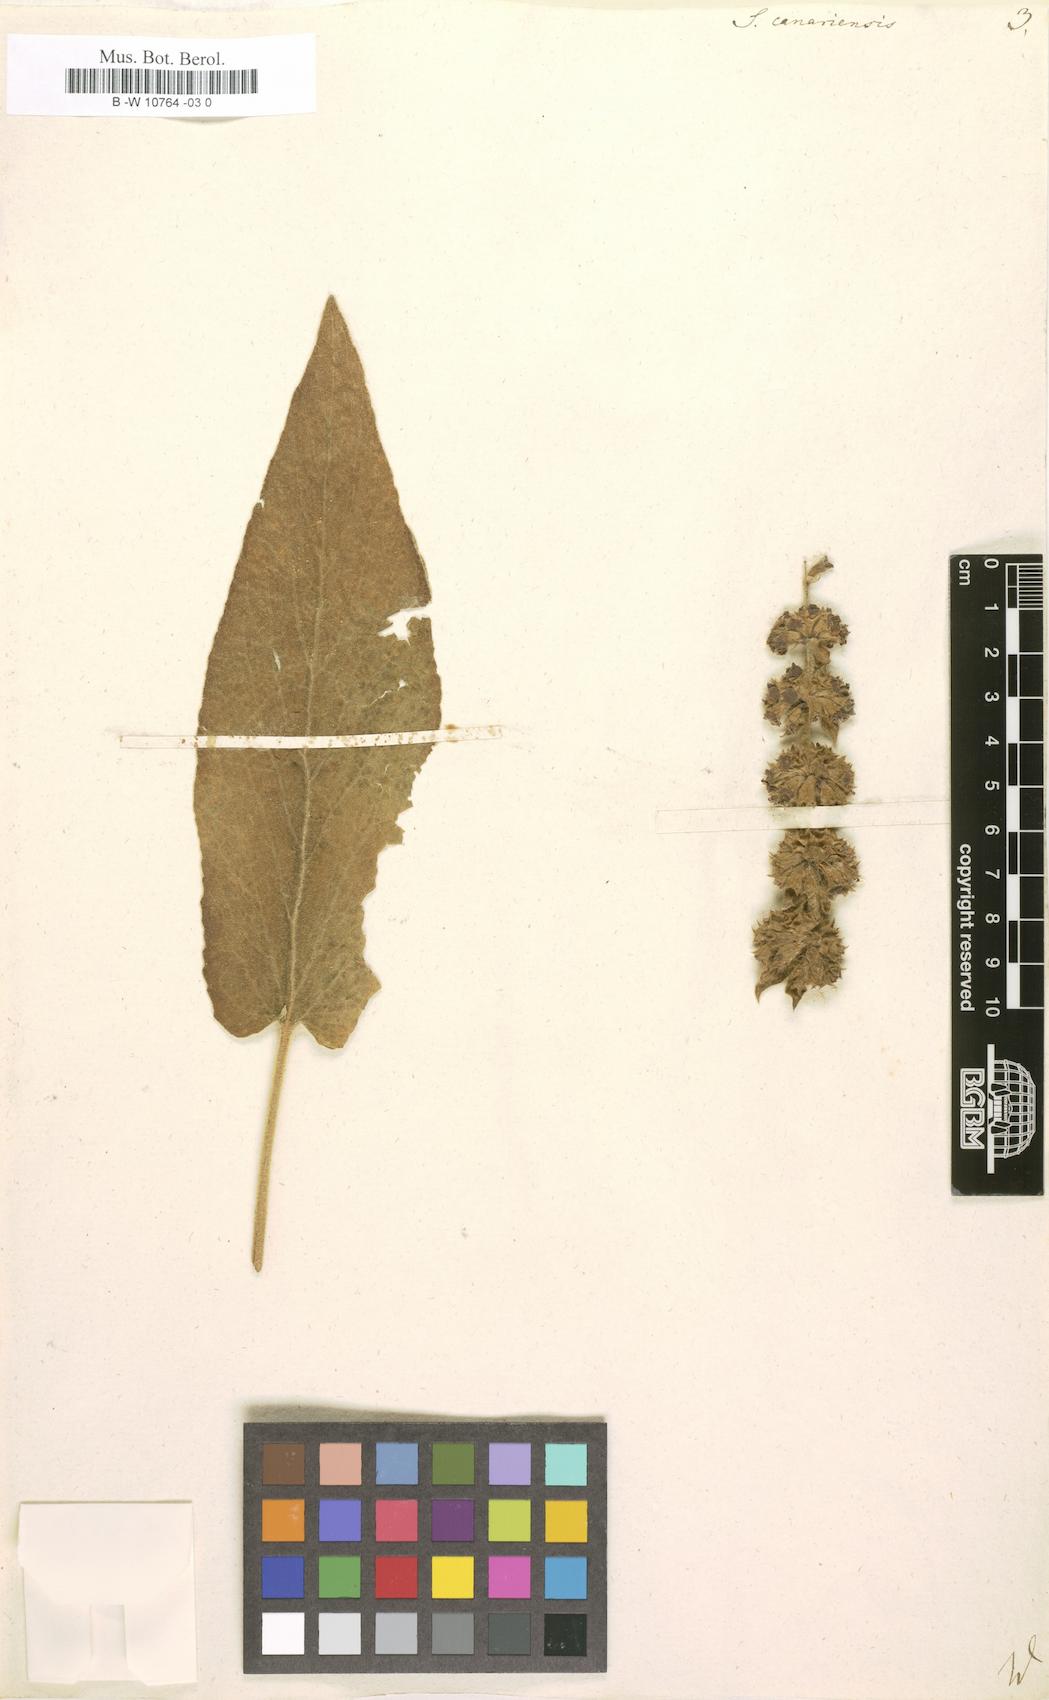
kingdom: Plantae
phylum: Tracheophyta
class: Magnoliopsida
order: Lamiales
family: Lamiaceae
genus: Sideritis
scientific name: Sideritis canariensis
